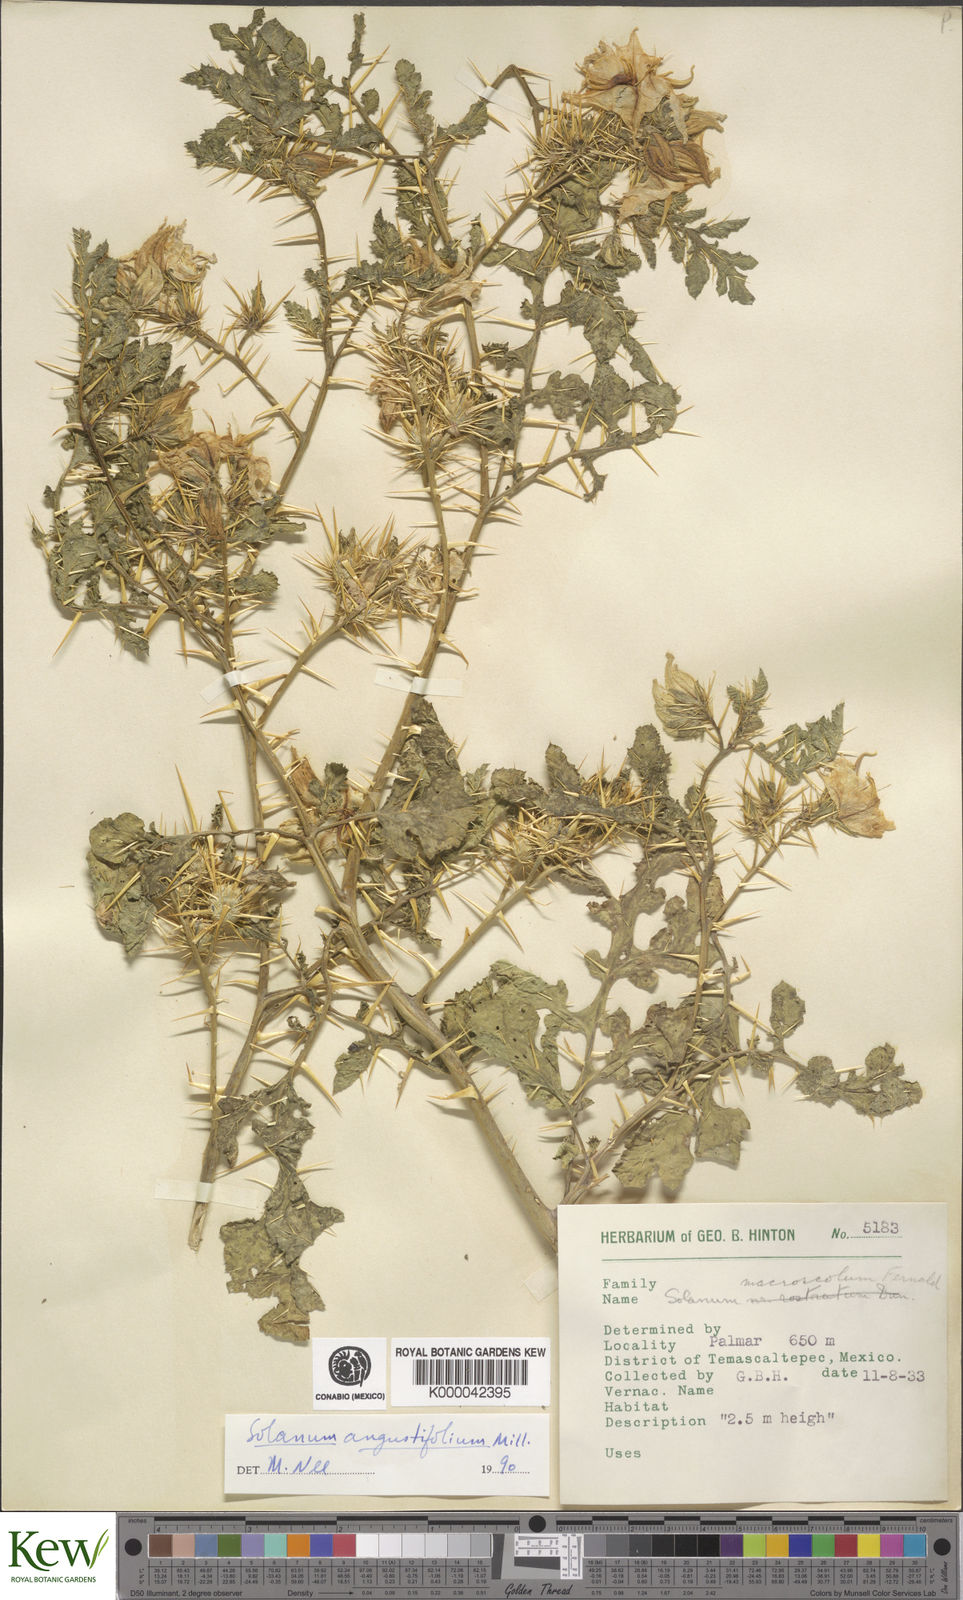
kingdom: Plantae
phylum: Tracheophyta
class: Magnoliopsida
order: Solanales
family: Solanaceae
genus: Solanum
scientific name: Solanum angustifolium
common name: Buffalobur nightshade
